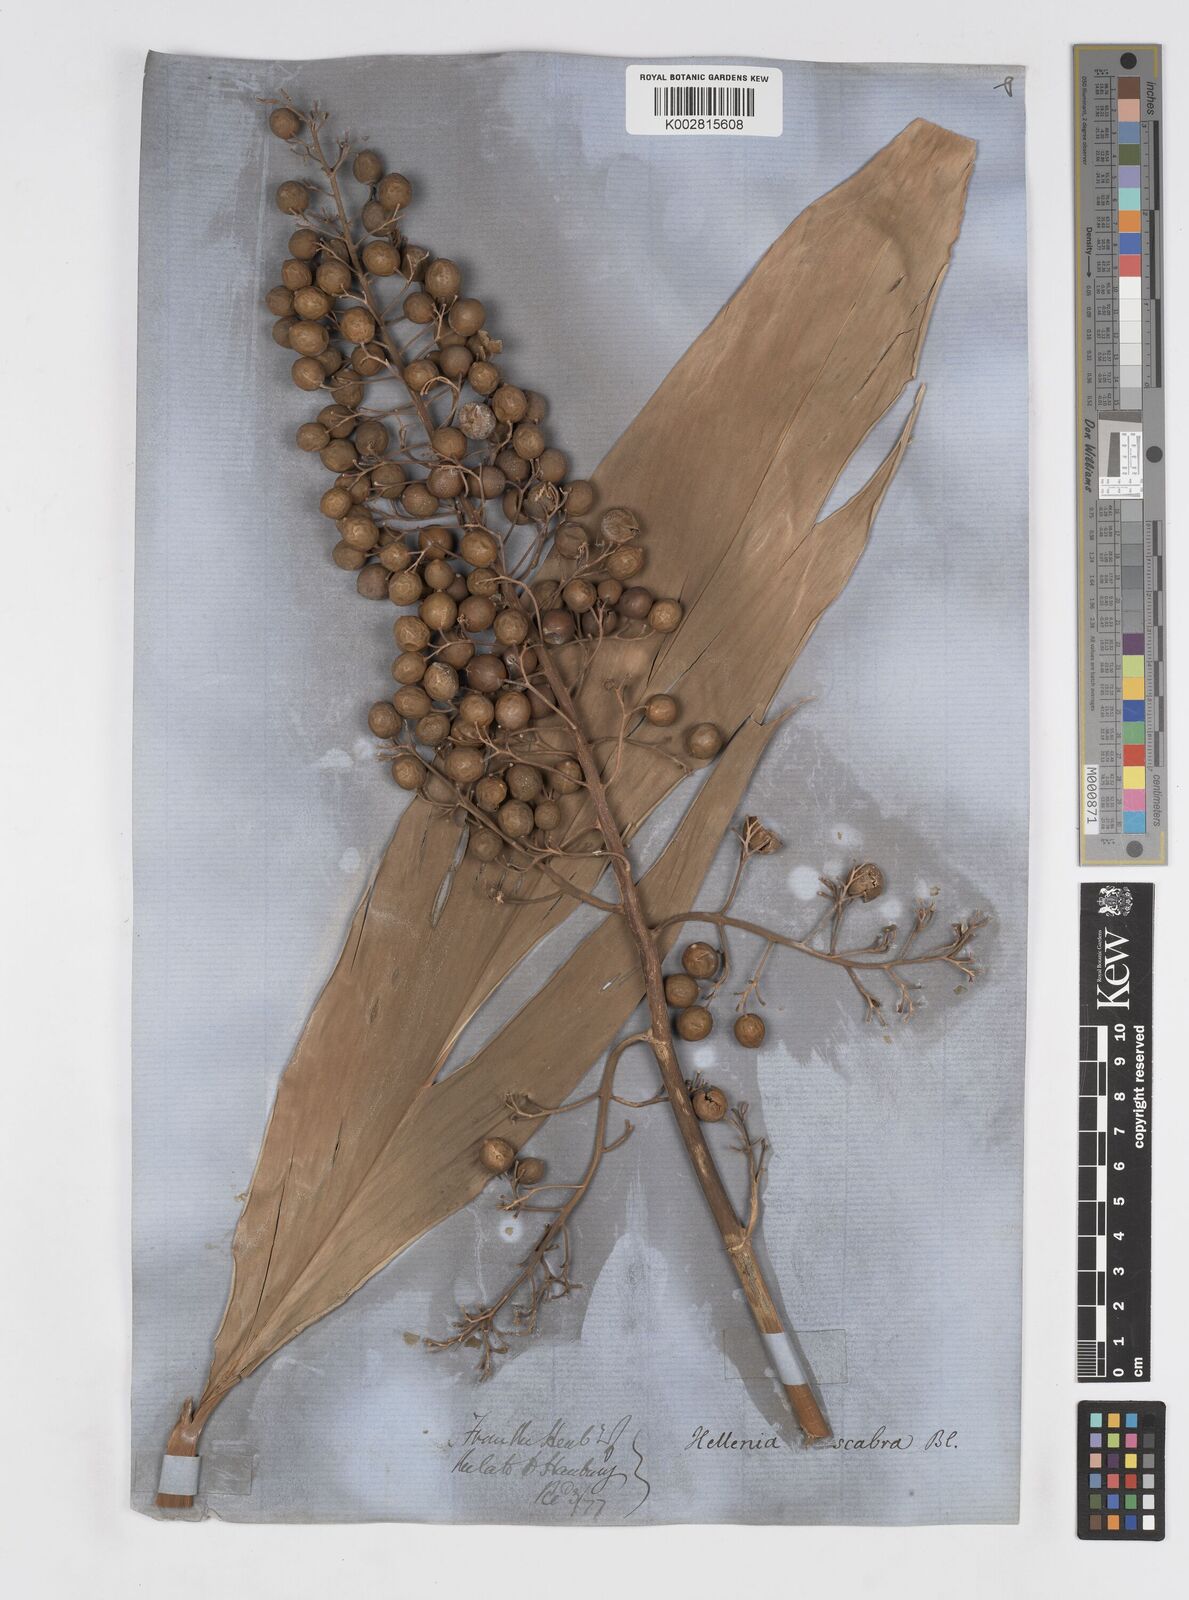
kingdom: Plantae
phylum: Tracheophyta
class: Liliopsida
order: Zingiberales
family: Zingiberaceae
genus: Alpinia
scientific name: Alpinia scabra
